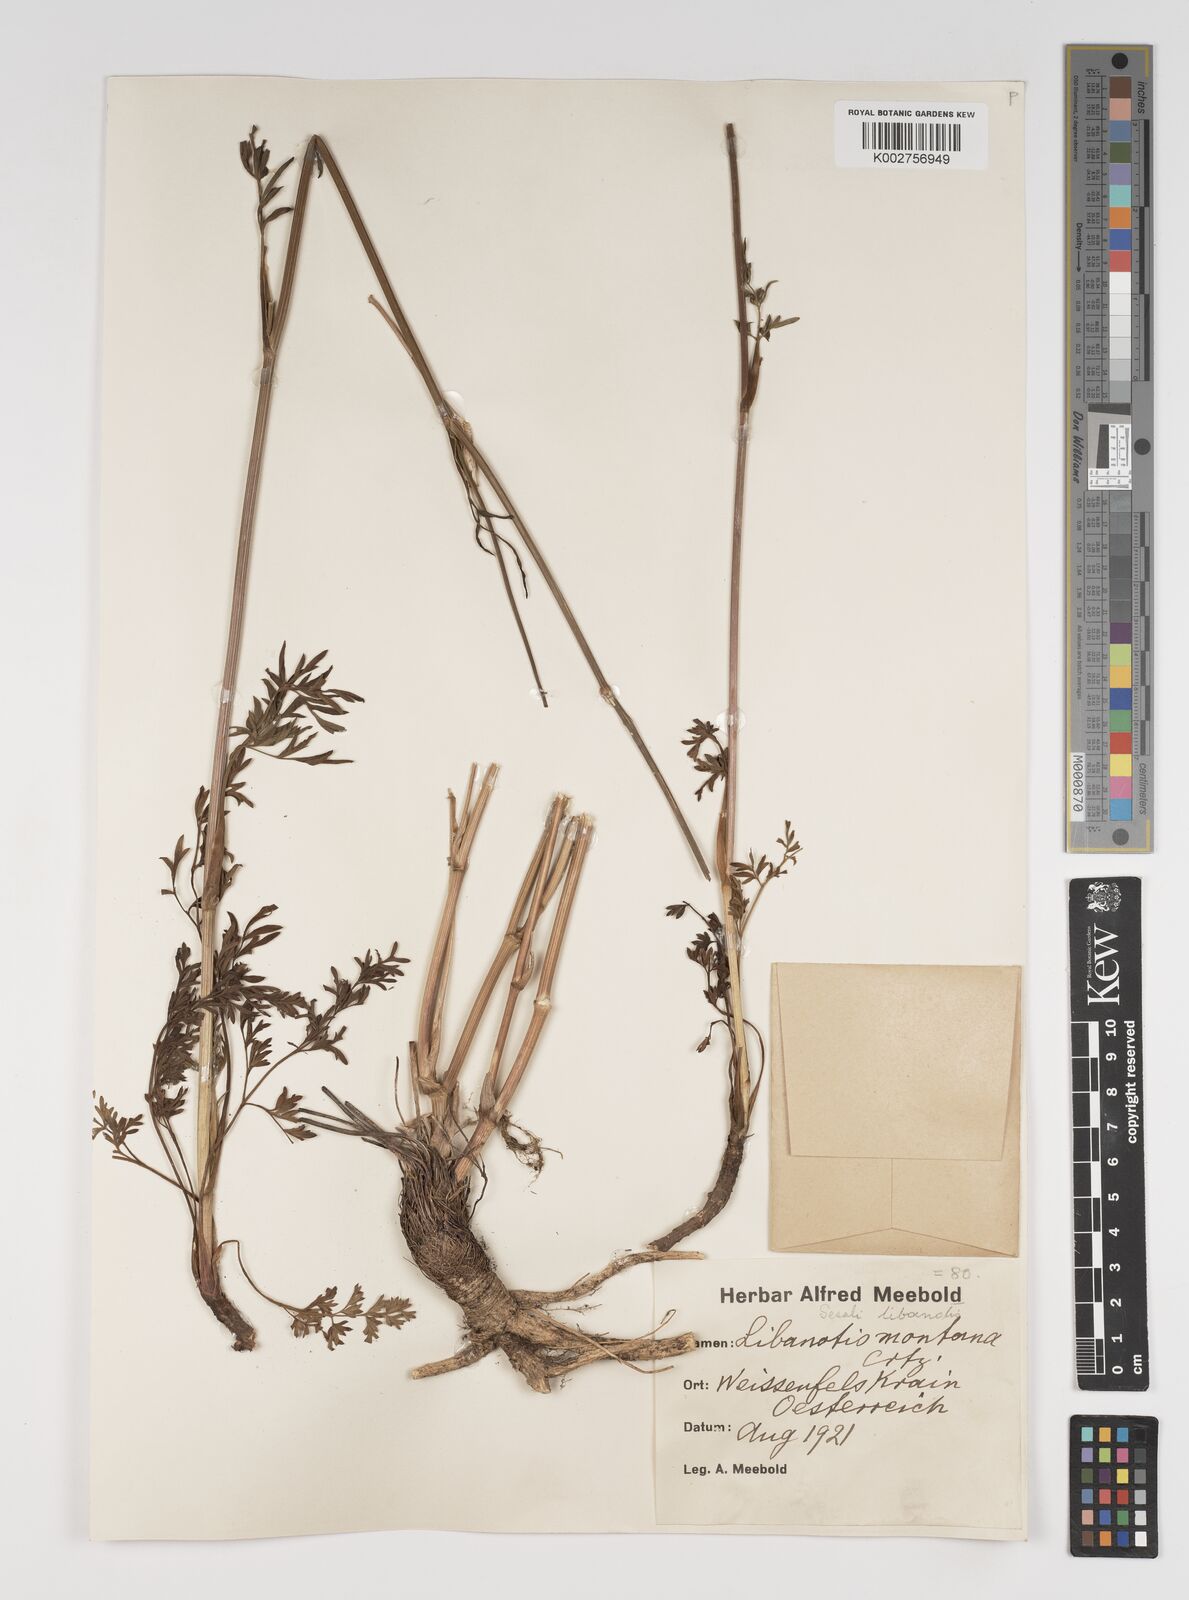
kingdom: Plantae
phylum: Tracheophyta
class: Magnoliopsida
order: Apiales
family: Apiaceae
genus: Seseli
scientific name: Seseli libanotis
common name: Mooncarrot
